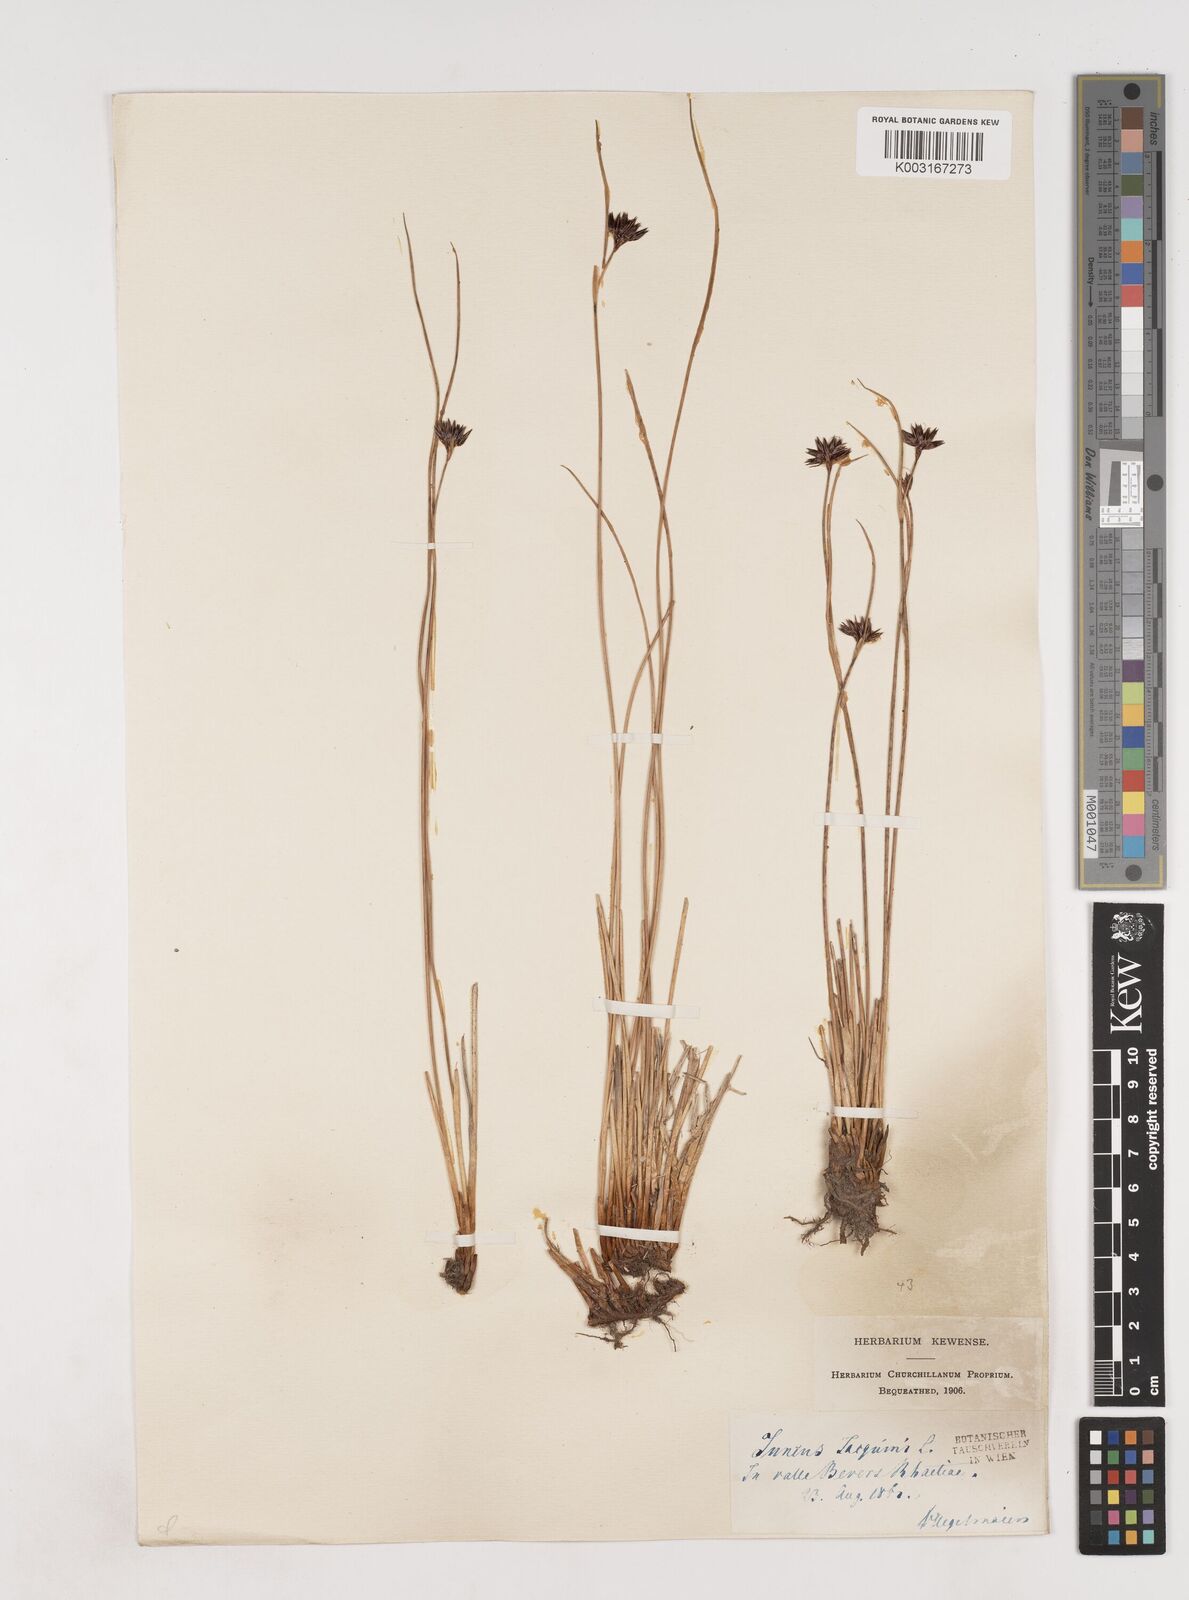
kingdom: Plantae
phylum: Tracheophyta
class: Liliopsida
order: Poales
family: Juncaceae
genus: Juncus
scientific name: Juncus jacquinii
